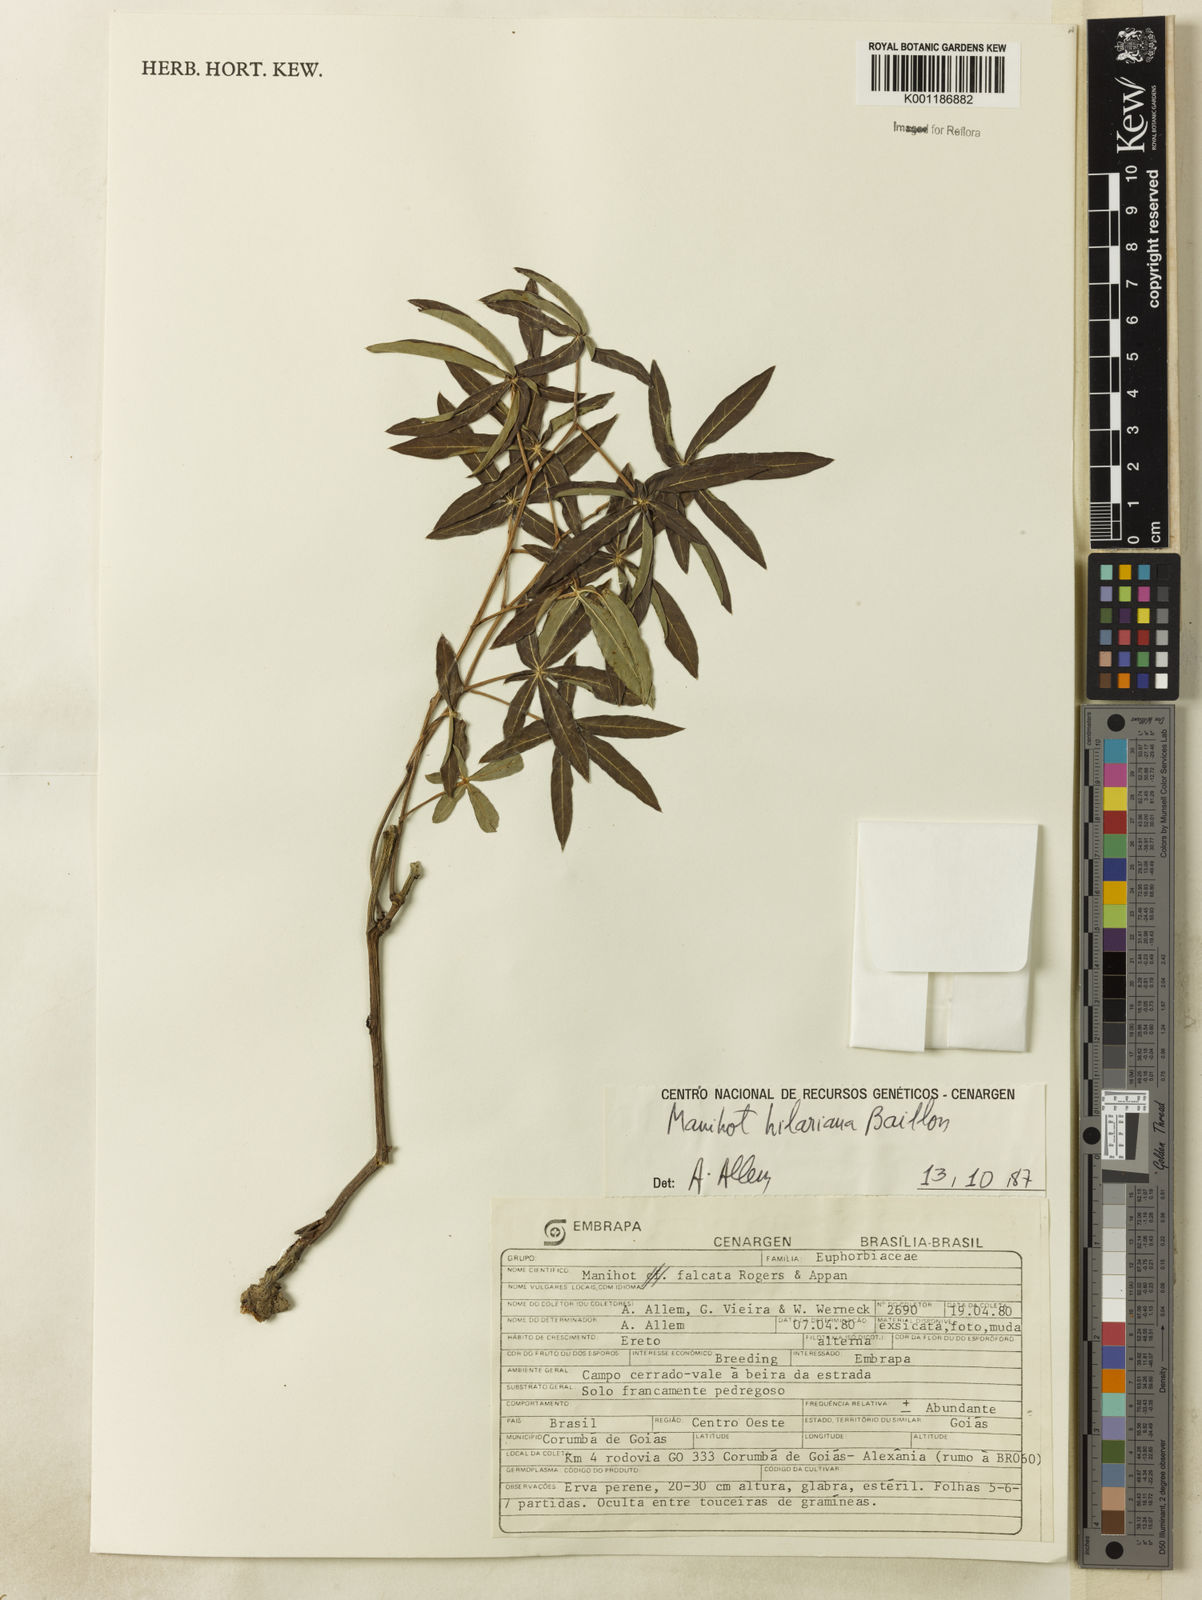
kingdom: Plantae
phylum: Tracheophyta
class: Magnoliopsida
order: Malpighiales
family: Euphorbiaceae
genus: Manihot
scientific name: Manihot hilariana
